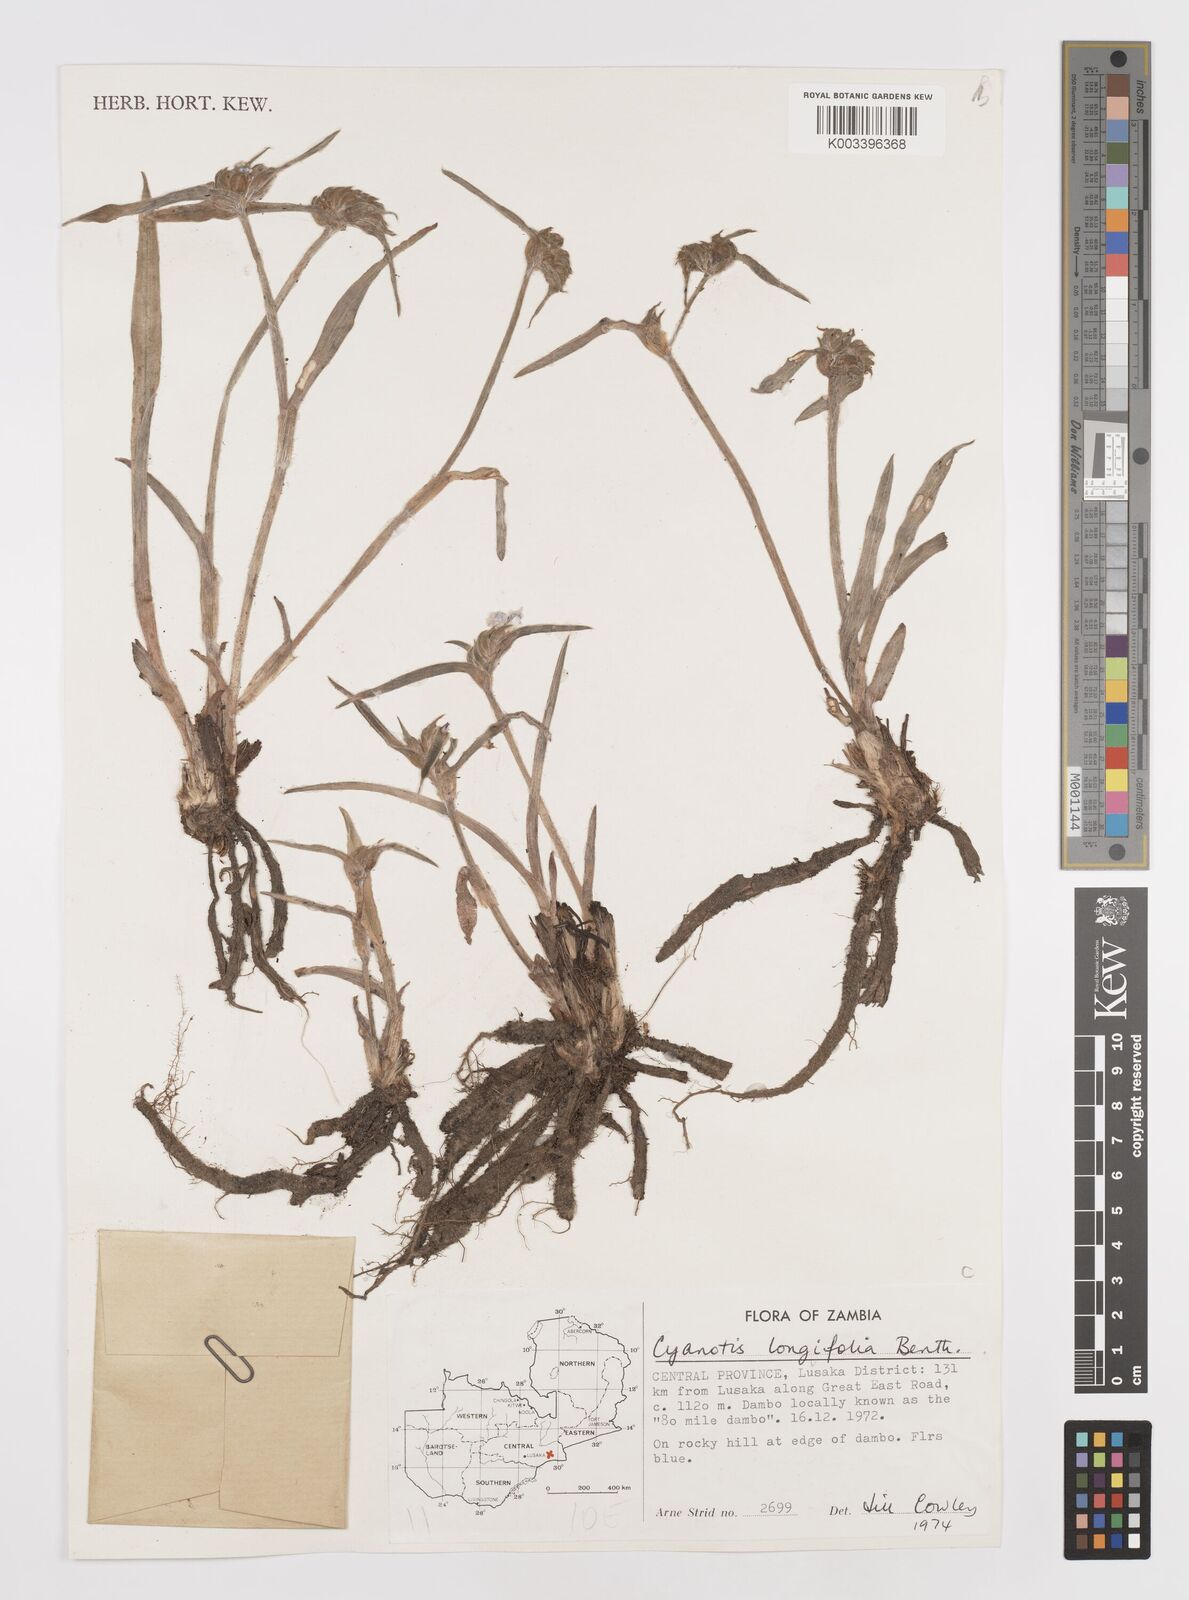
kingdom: Plantae
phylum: Tracheophyta
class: Liliopsida
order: Commelinales
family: Commelinaceae
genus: Cyanotis
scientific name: Cyanotis longifolia
